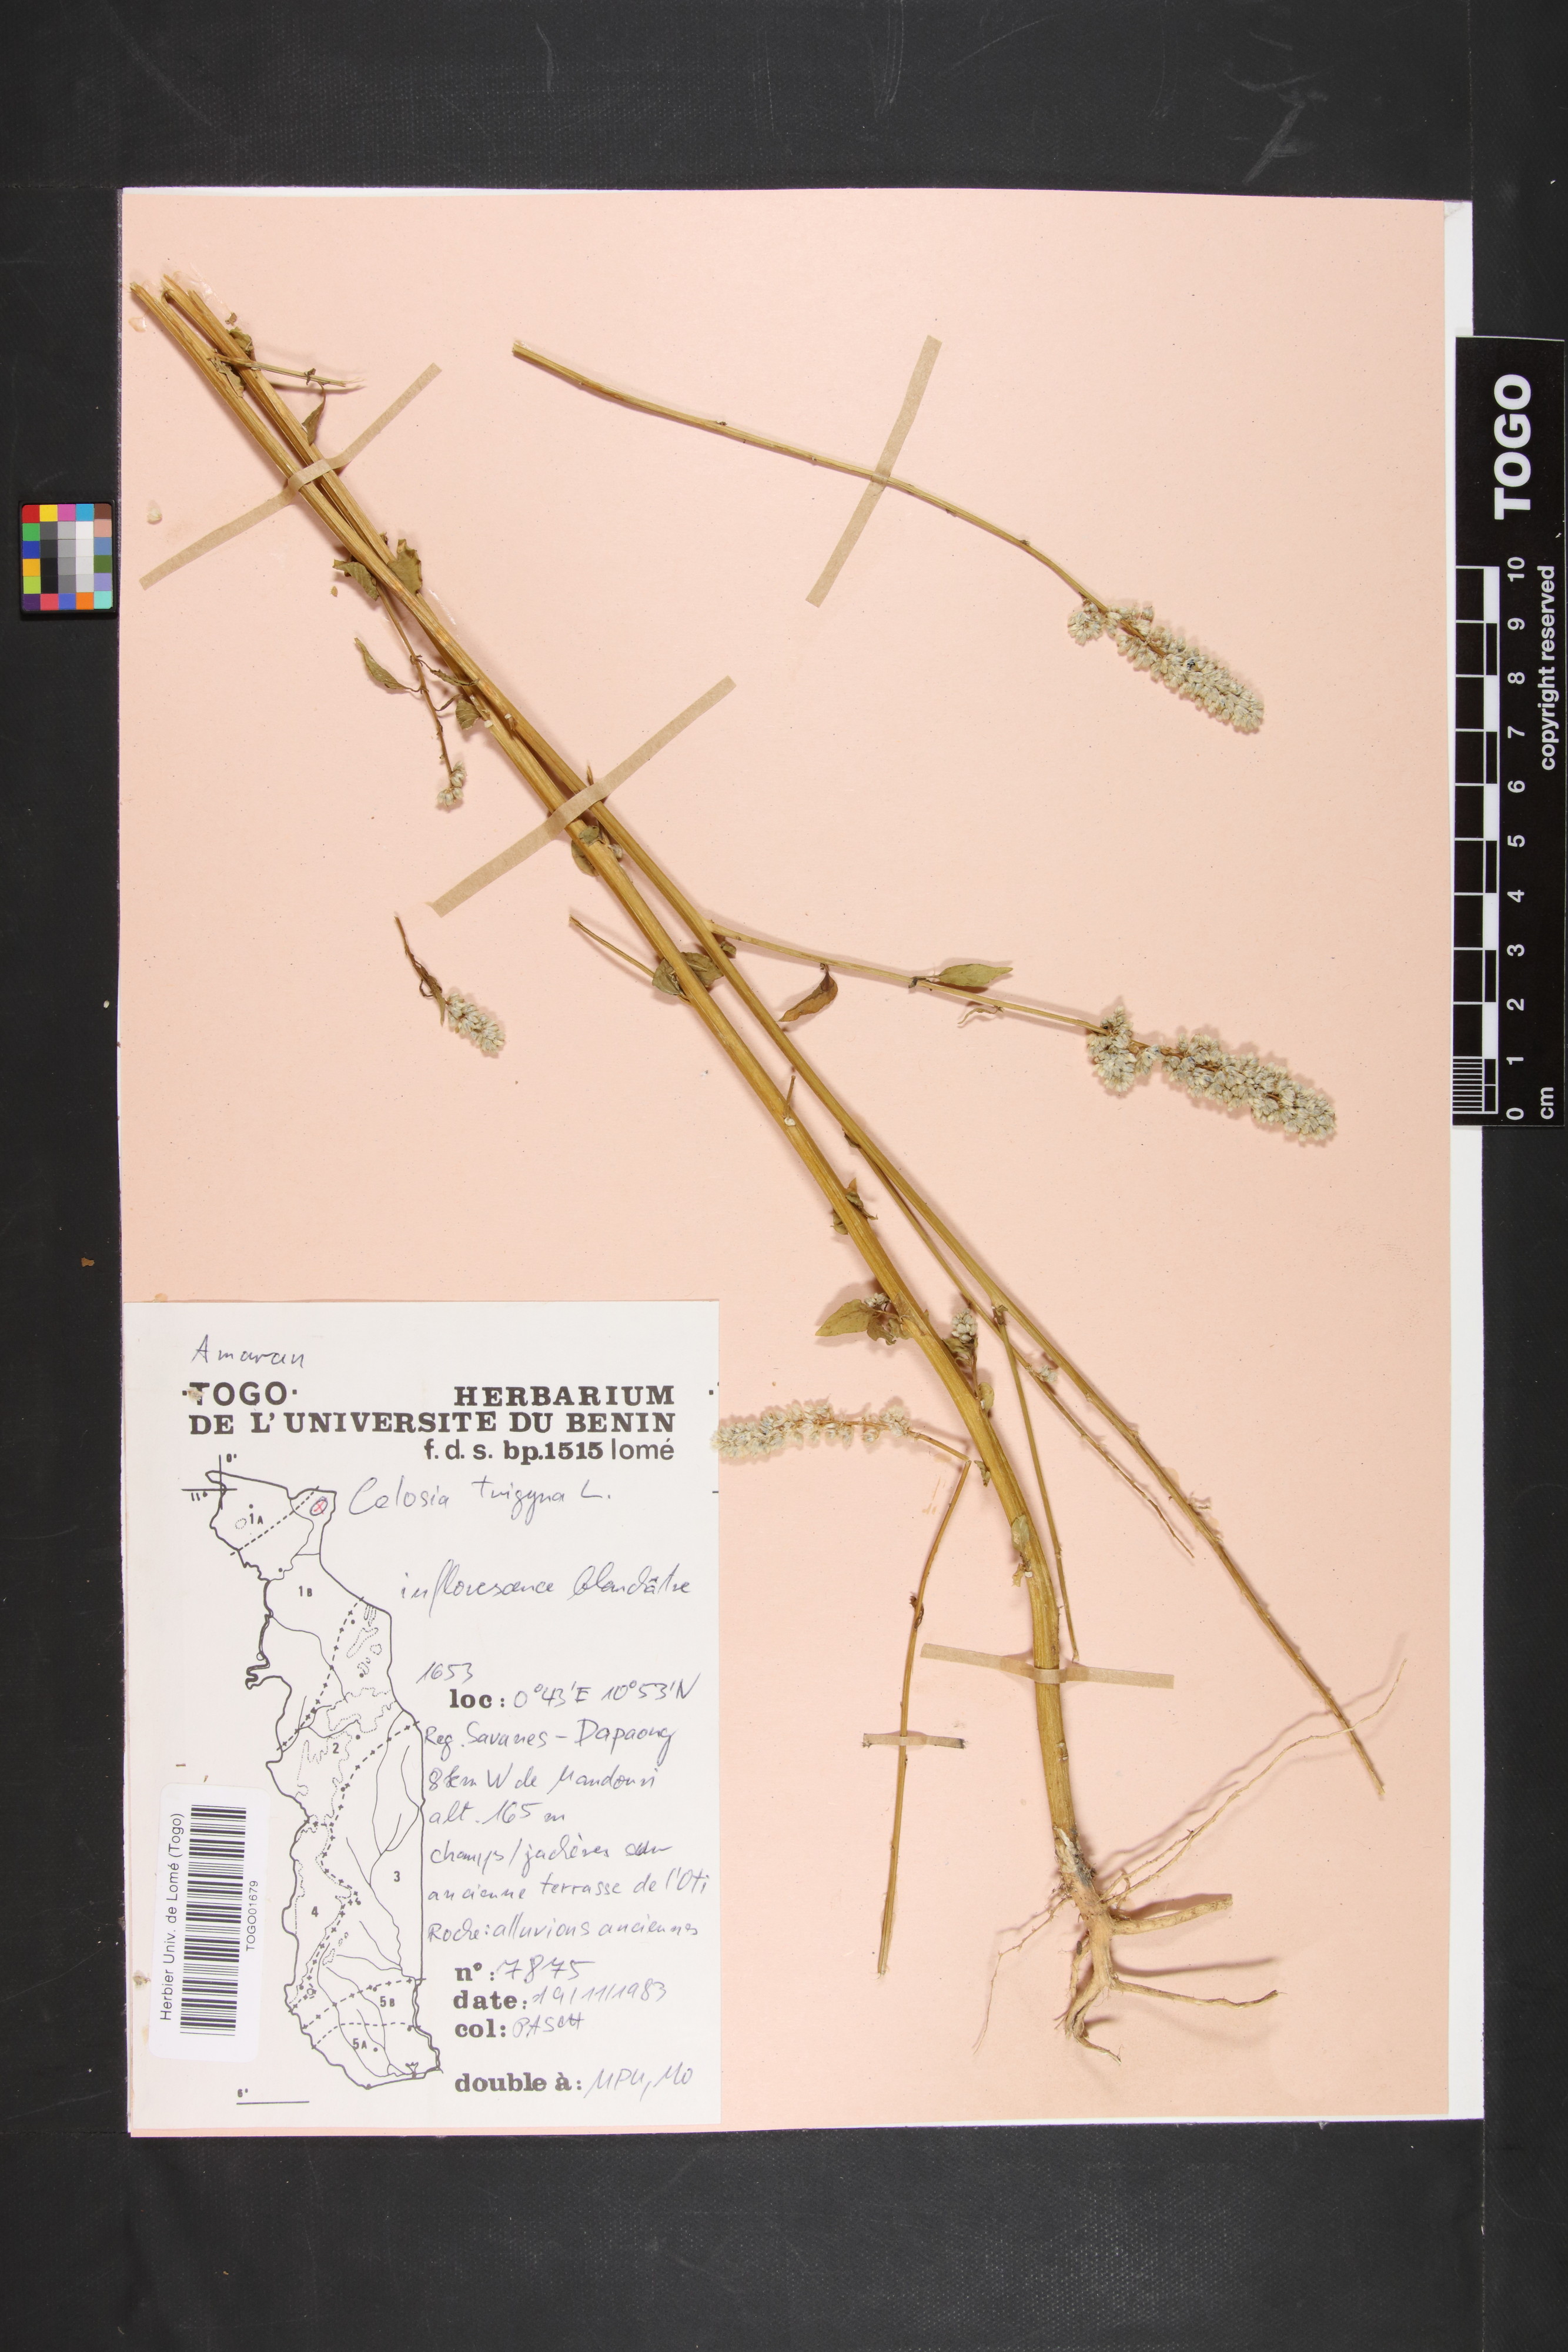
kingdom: Plantae
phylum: Tracheophyta
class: Magnoliopsida
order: Caryophyllales
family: Amaranthaceae
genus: Celosia
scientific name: Celosia trigyna
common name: Woolflower
